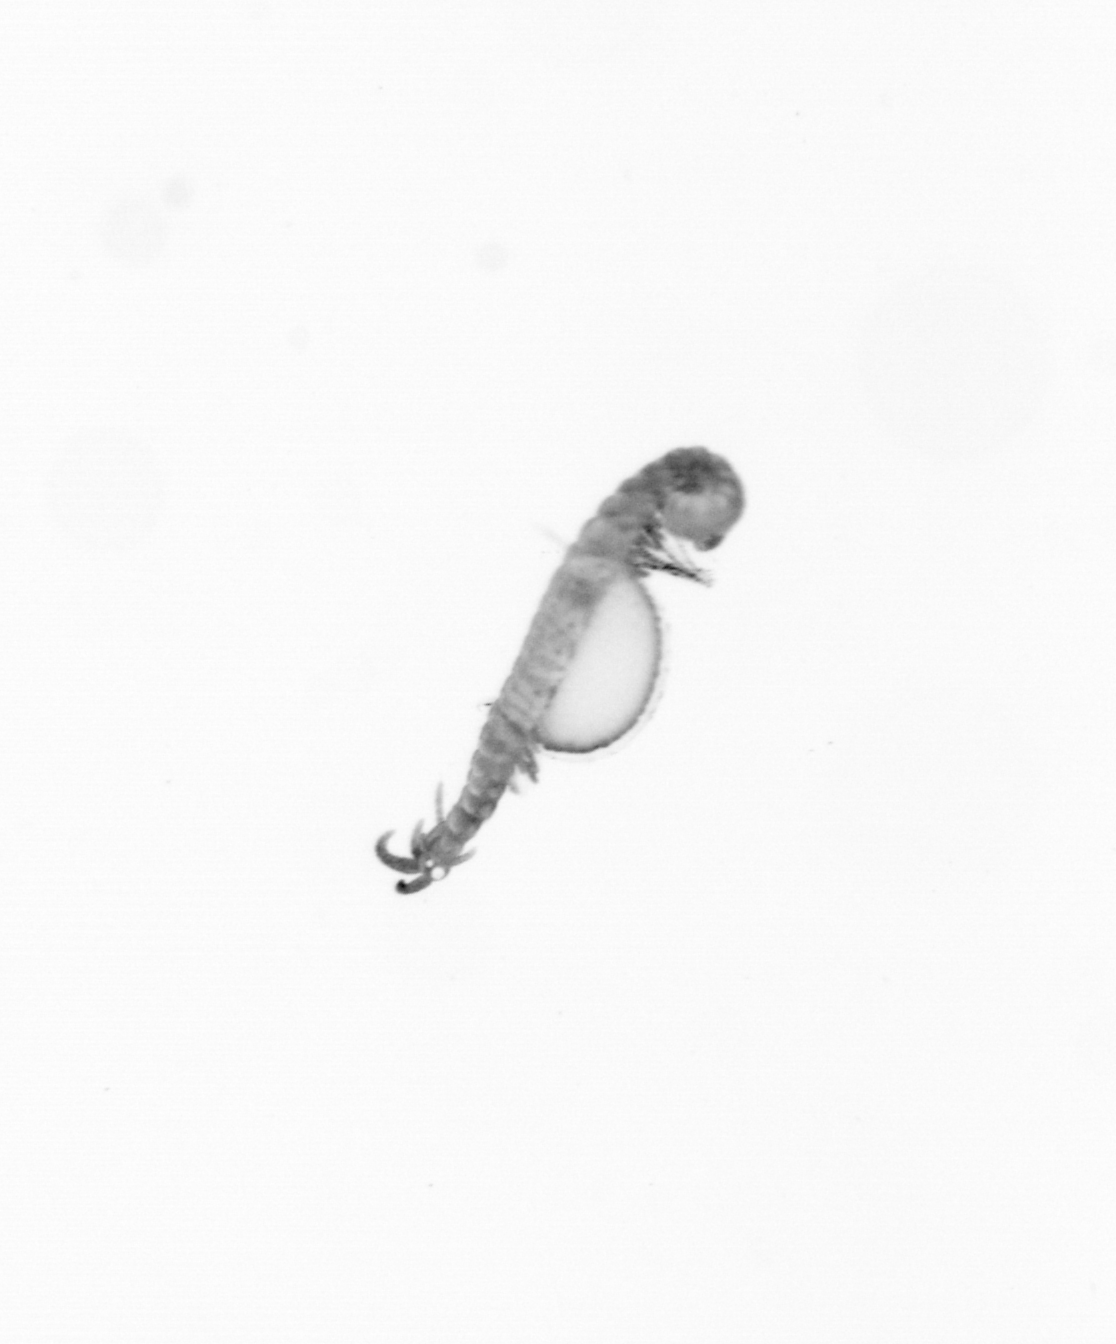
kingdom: Animalia
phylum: Annelida
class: Polychaeta
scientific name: Polychaeta
